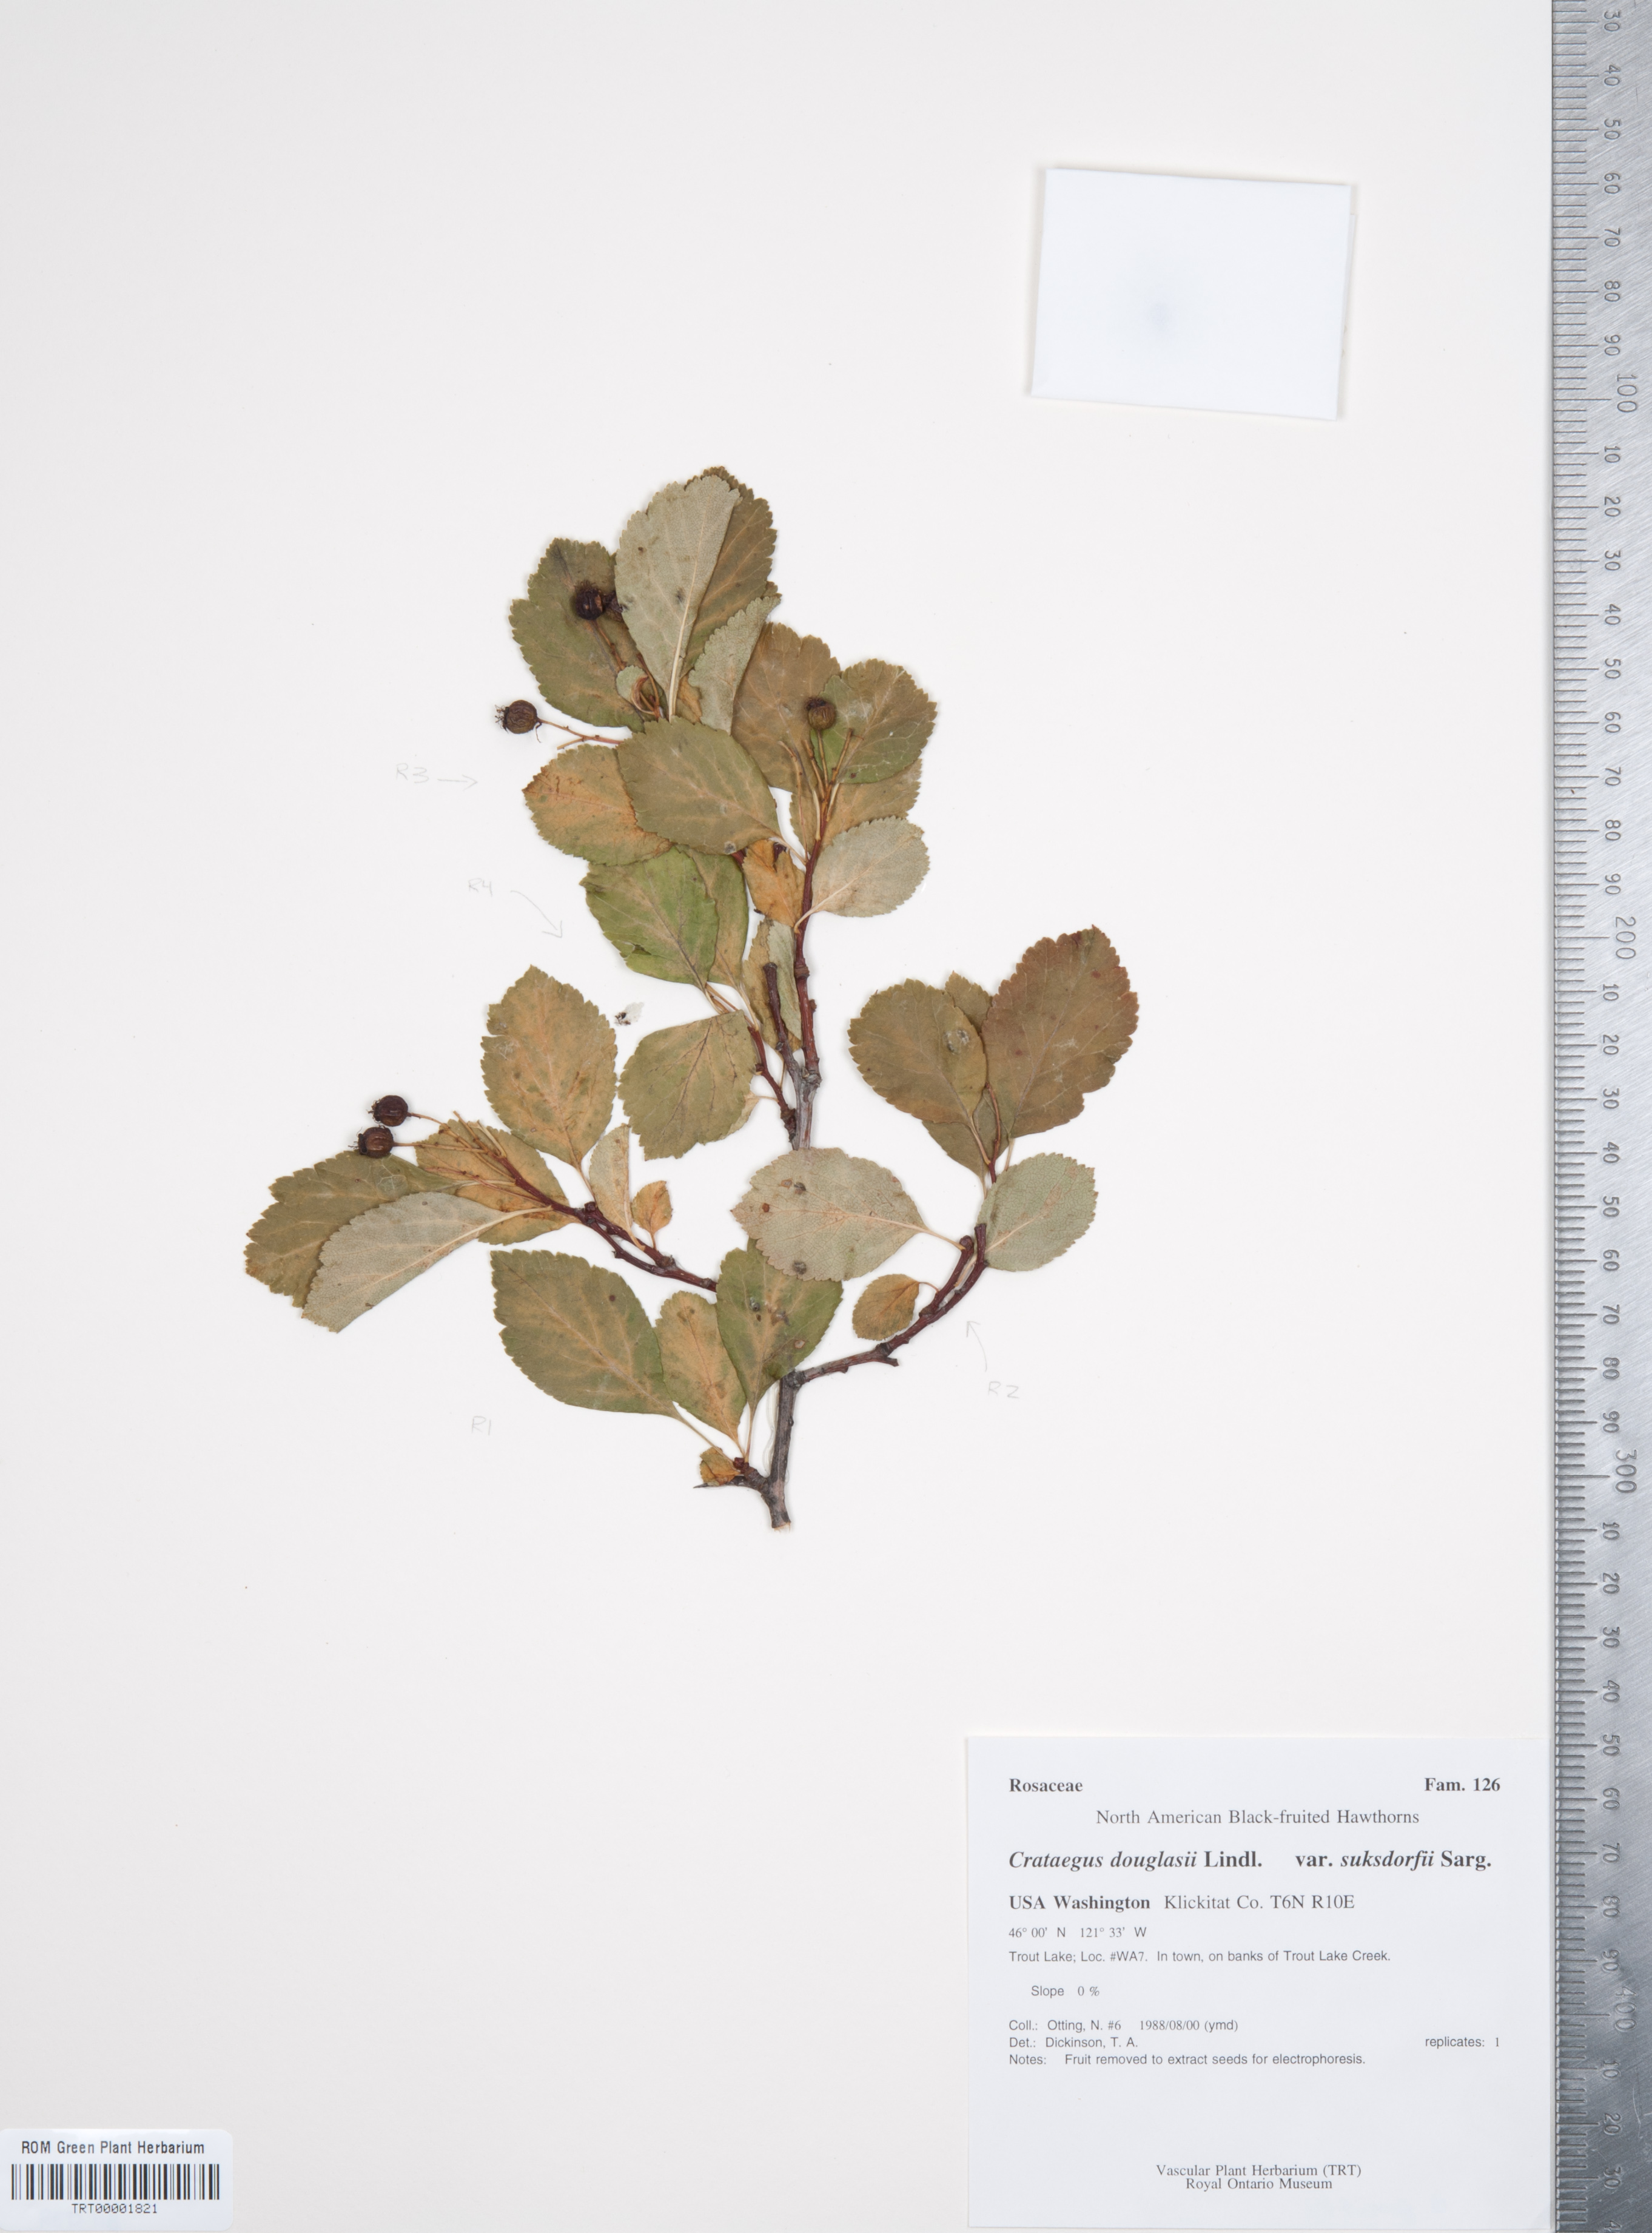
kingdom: Plantae
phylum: Tracheophyta
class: Magnoliopsida
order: Rosales
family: Rosaceae
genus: Crataegus
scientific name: Crataegus gaylussacia
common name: Huckleberry hawthorn
